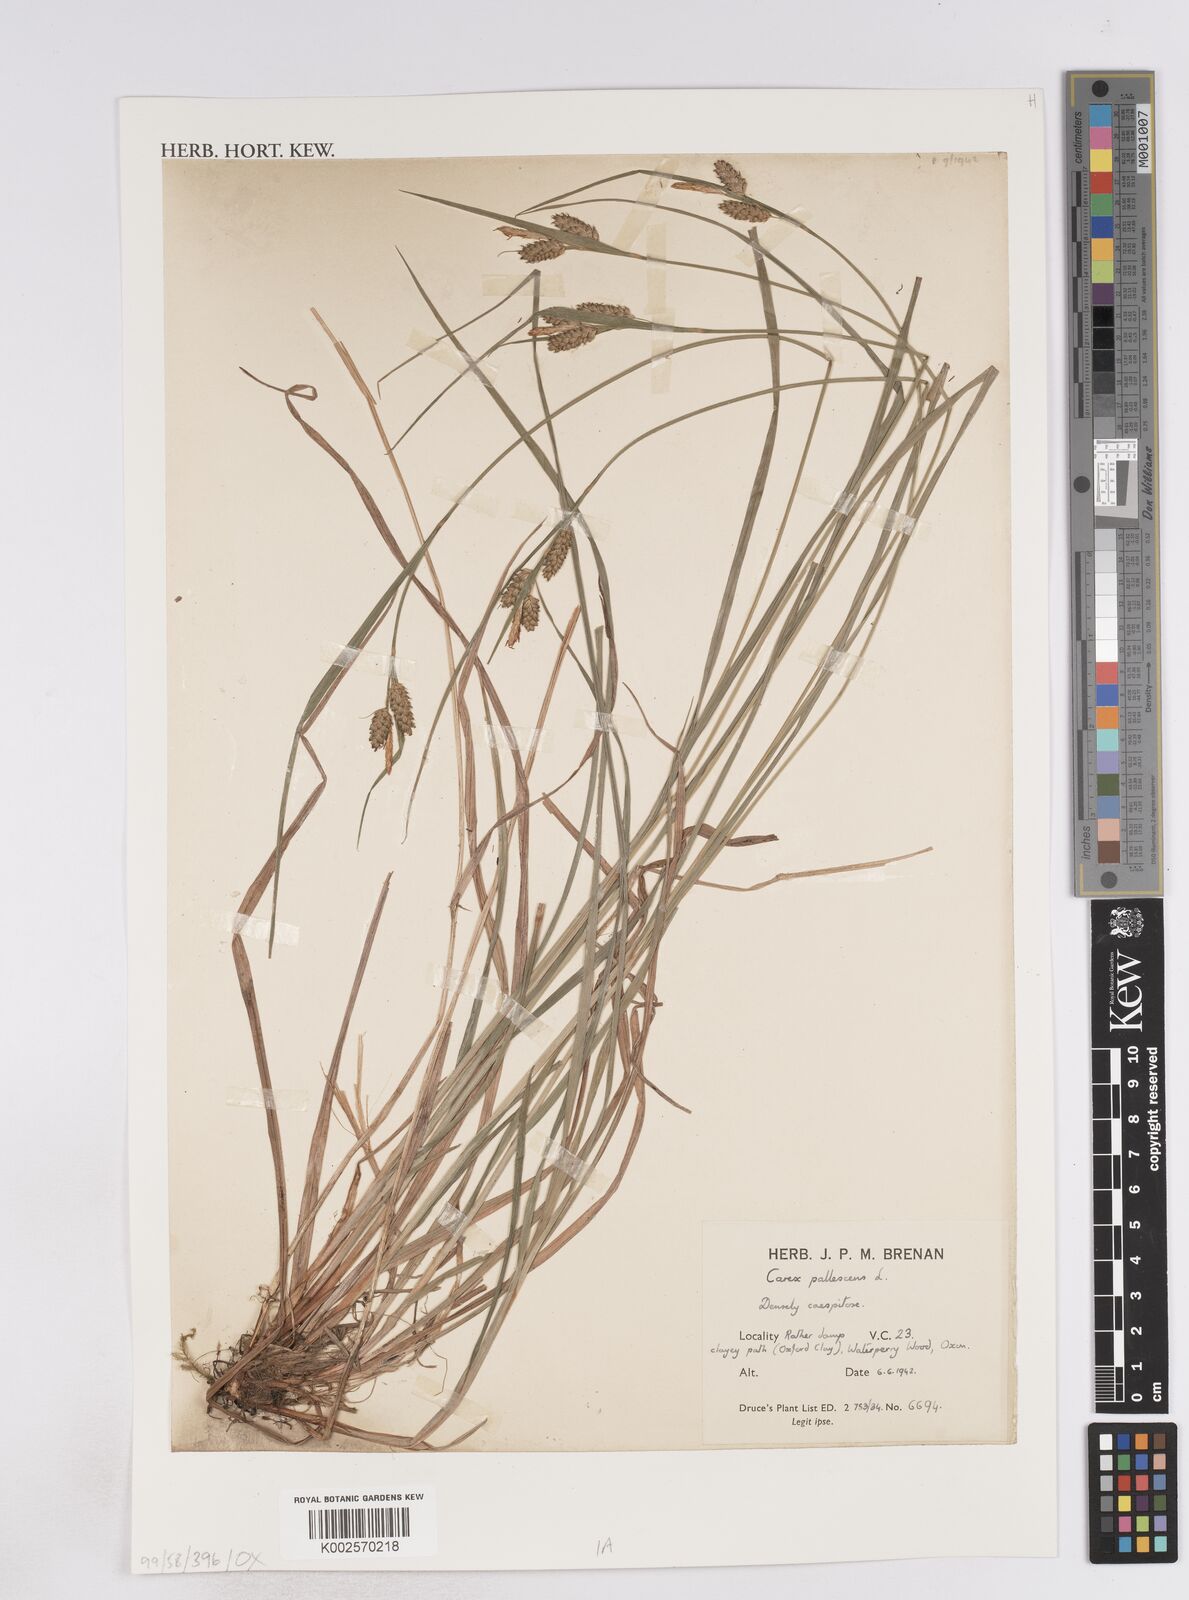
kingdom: Plantae
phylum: Tracheophyta
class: Liliopsida
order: Poales
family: Cyperaceae
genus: Carex
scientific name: Carex pallescens
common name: Pale sedge
